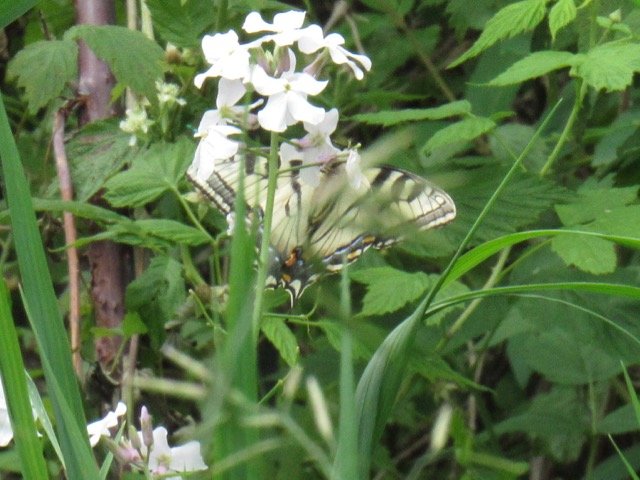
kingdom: Animalia
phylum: Arthropoda
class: Insecta
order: Lepidoptera
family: Papilionidae
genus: Pterourus
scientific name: Pterourus canadensis
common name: Canadian Tiger Swallowtail
